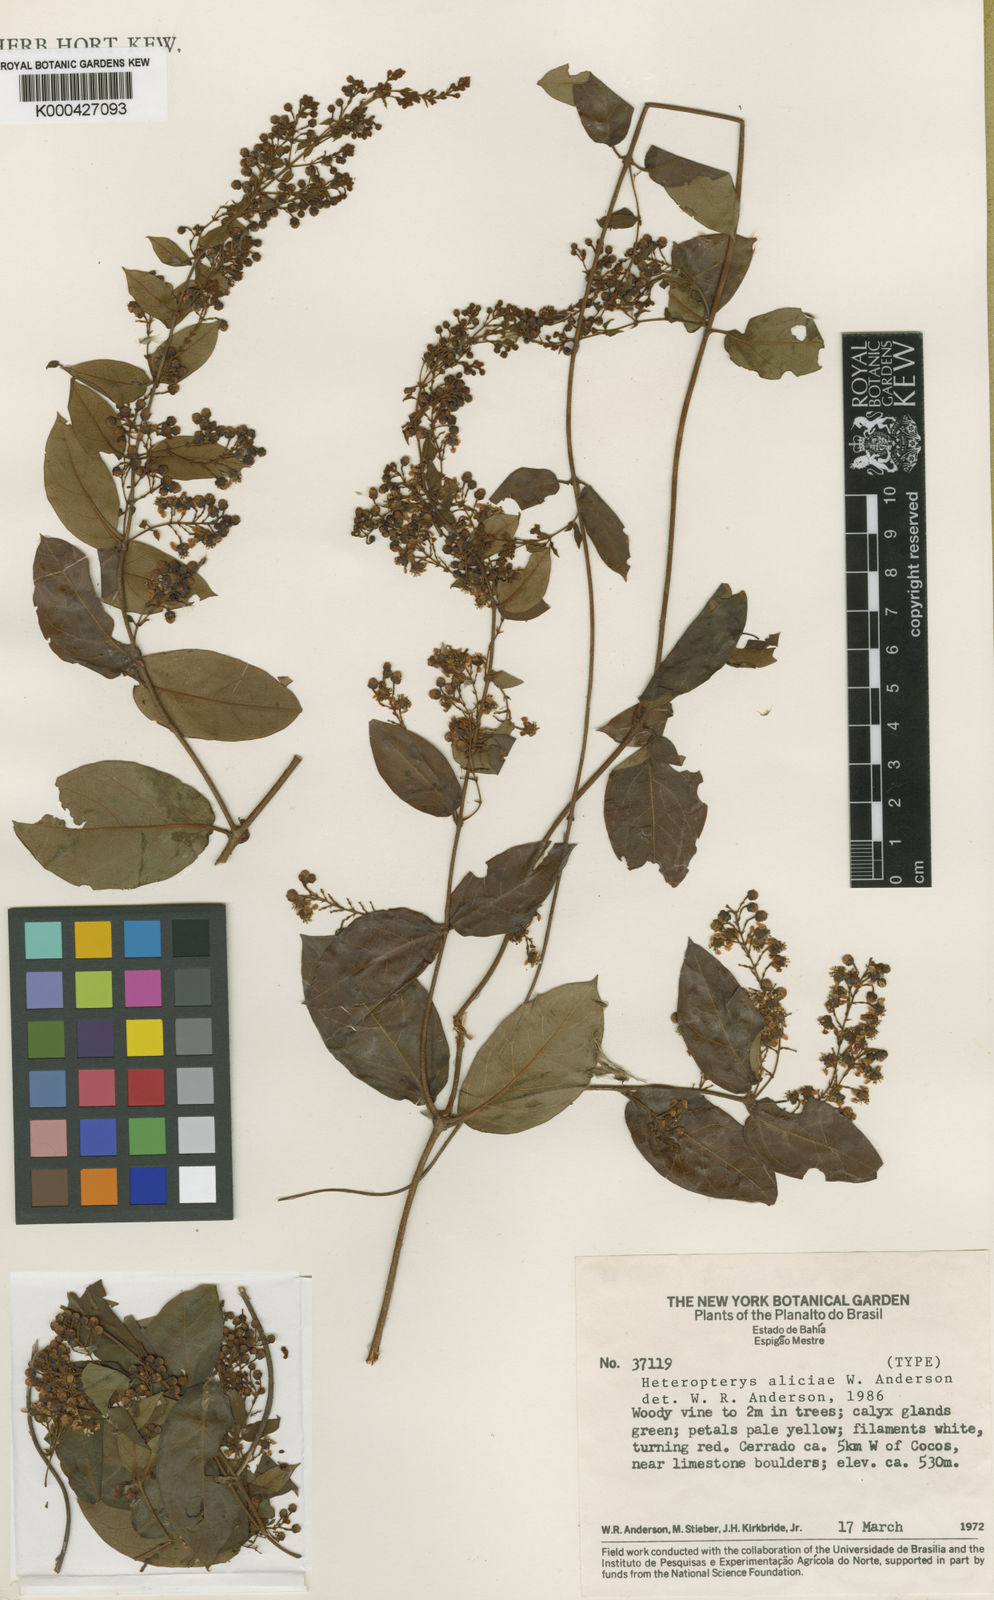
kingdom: Plantae
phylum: Tracheophyta
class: Magnoliopsida
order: Malpighiales
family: Malpighiaceae
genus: Heteropterys
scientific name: Heteropterys aliciae
